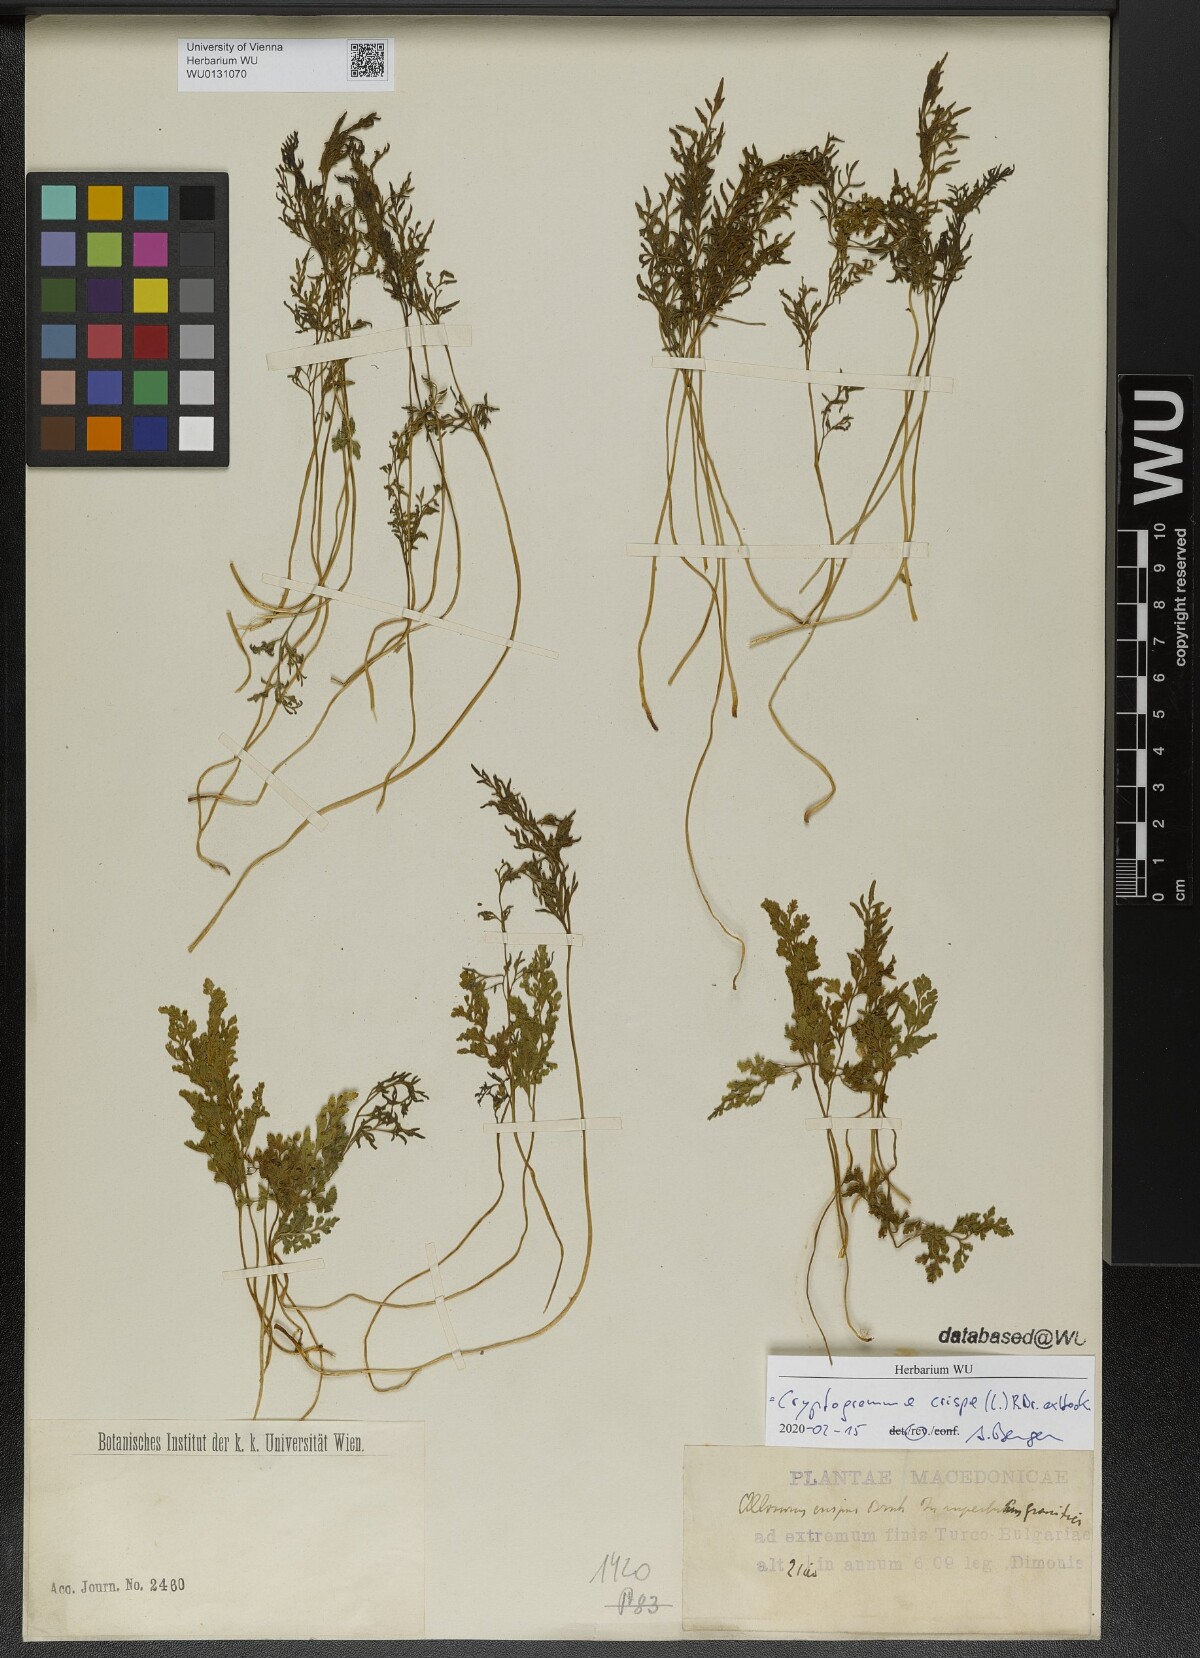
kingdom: Plantae
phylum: Tracheophyta
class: Polypodiopsida
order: Polypodiales
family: Pteridaceae
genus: Cryptogramma
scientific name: Cryptogramma crispa
